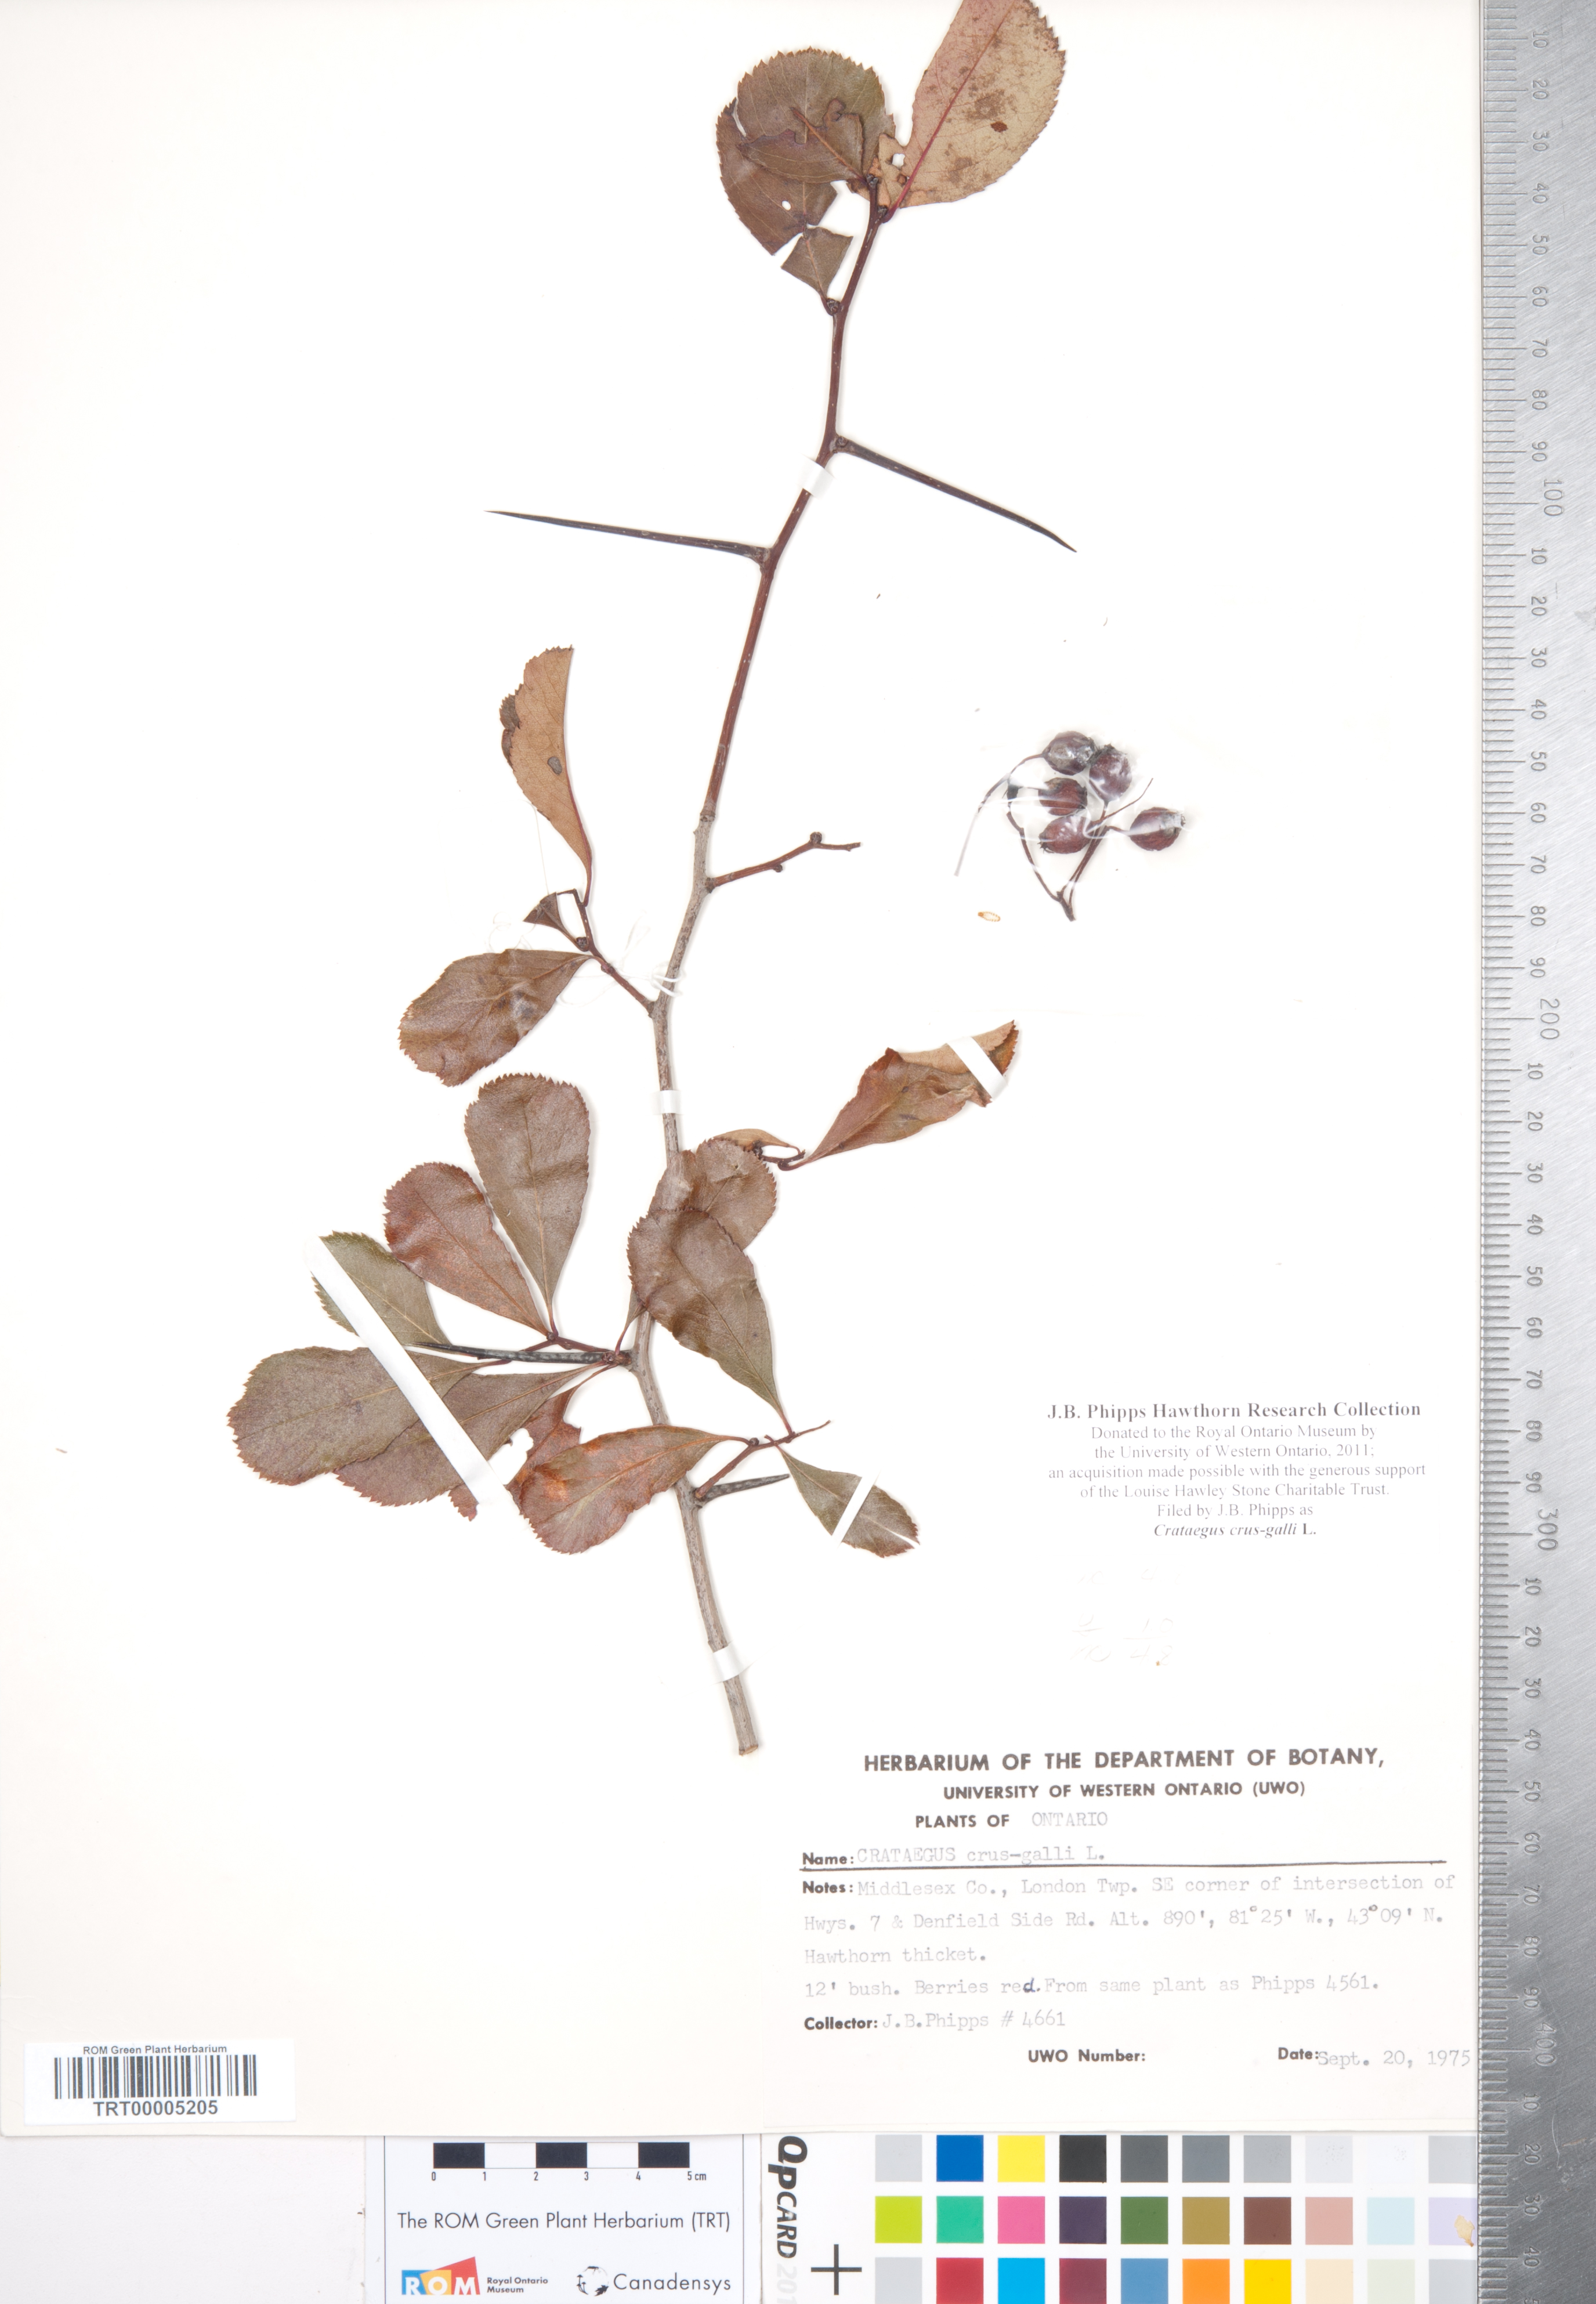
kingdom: Plantae
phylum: Tracheophyta
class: Magnoliopsida
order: Rosales
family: Rosaceae
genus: Crataegus
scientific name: Crataegus crus-galli
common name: Cockspurthorn
